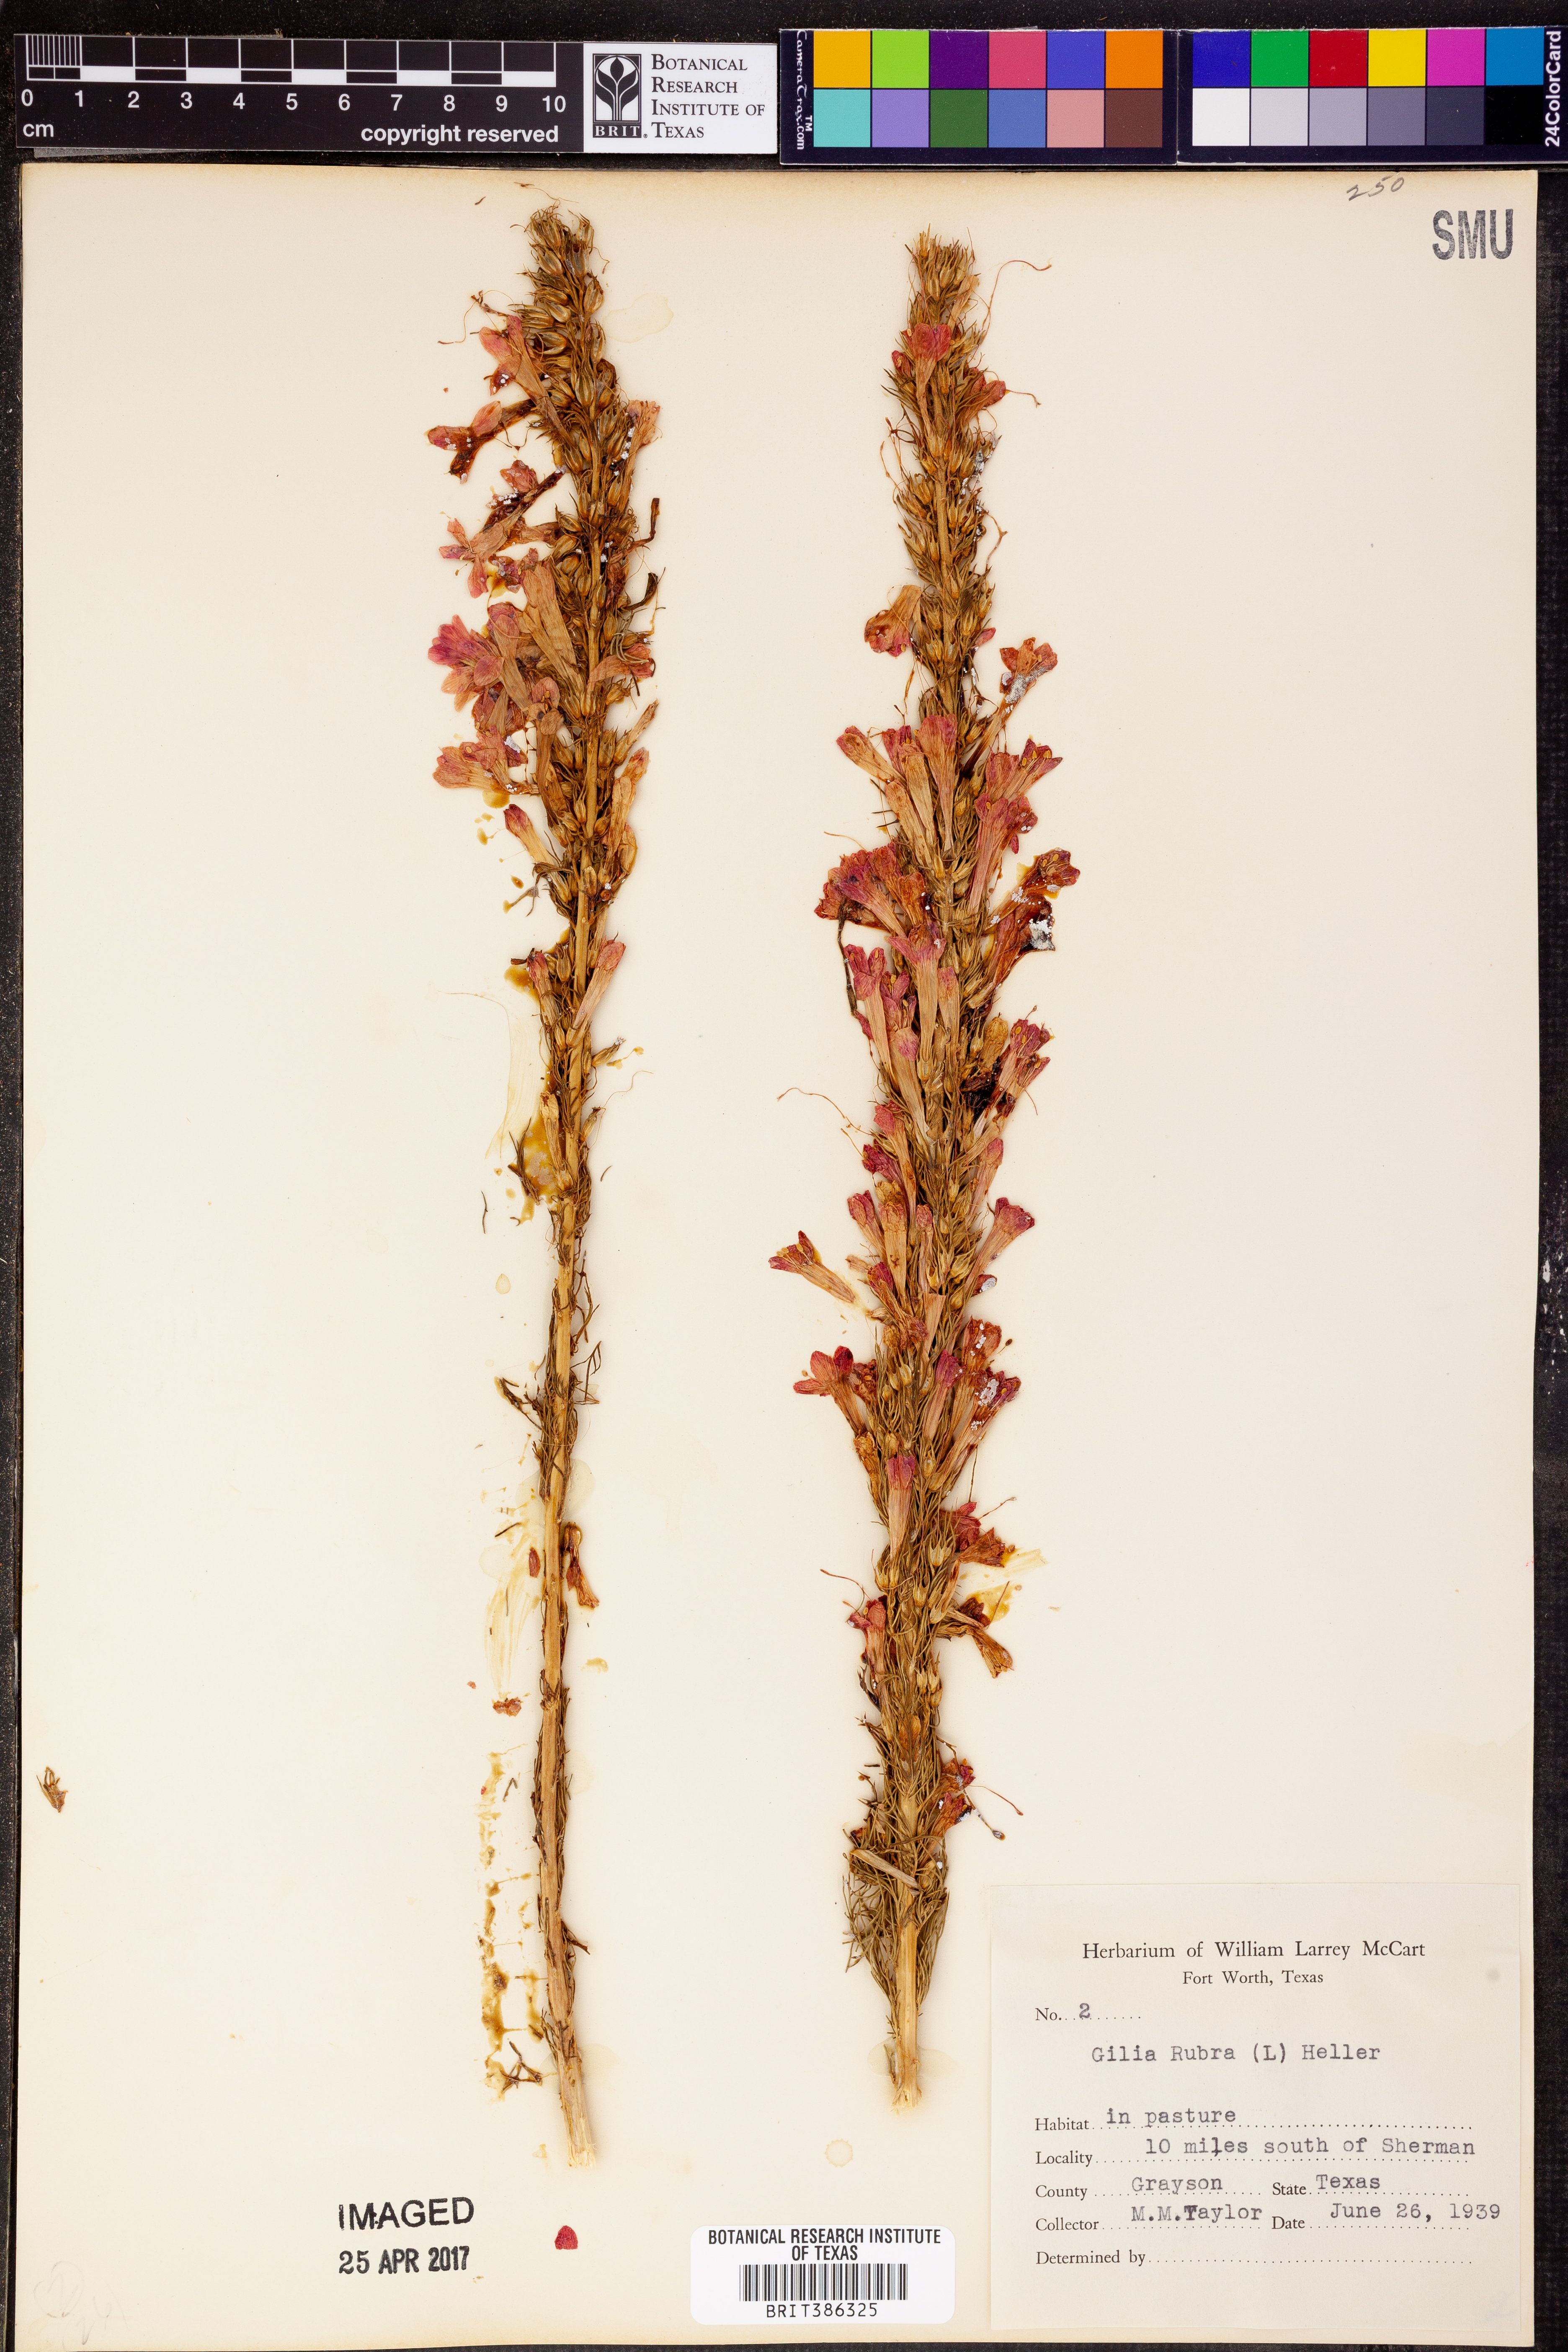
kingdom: Plantae
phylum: Tracheophyta
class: Magnoliopsida
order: Ericales
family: Polemoniaceae
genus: Ipomopsis
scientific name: Ipomopsis rubra
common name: Skyrocket
